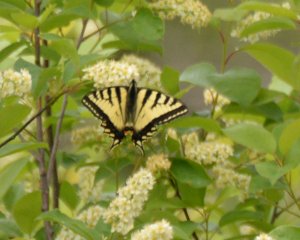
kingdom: Animalia
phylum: Arthropoda
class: Insecta
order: Lepidoptera
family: Papilionidae
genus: Pterourus
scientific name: Pterourus canadensis
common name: Canadian Tiger Swallowtail
